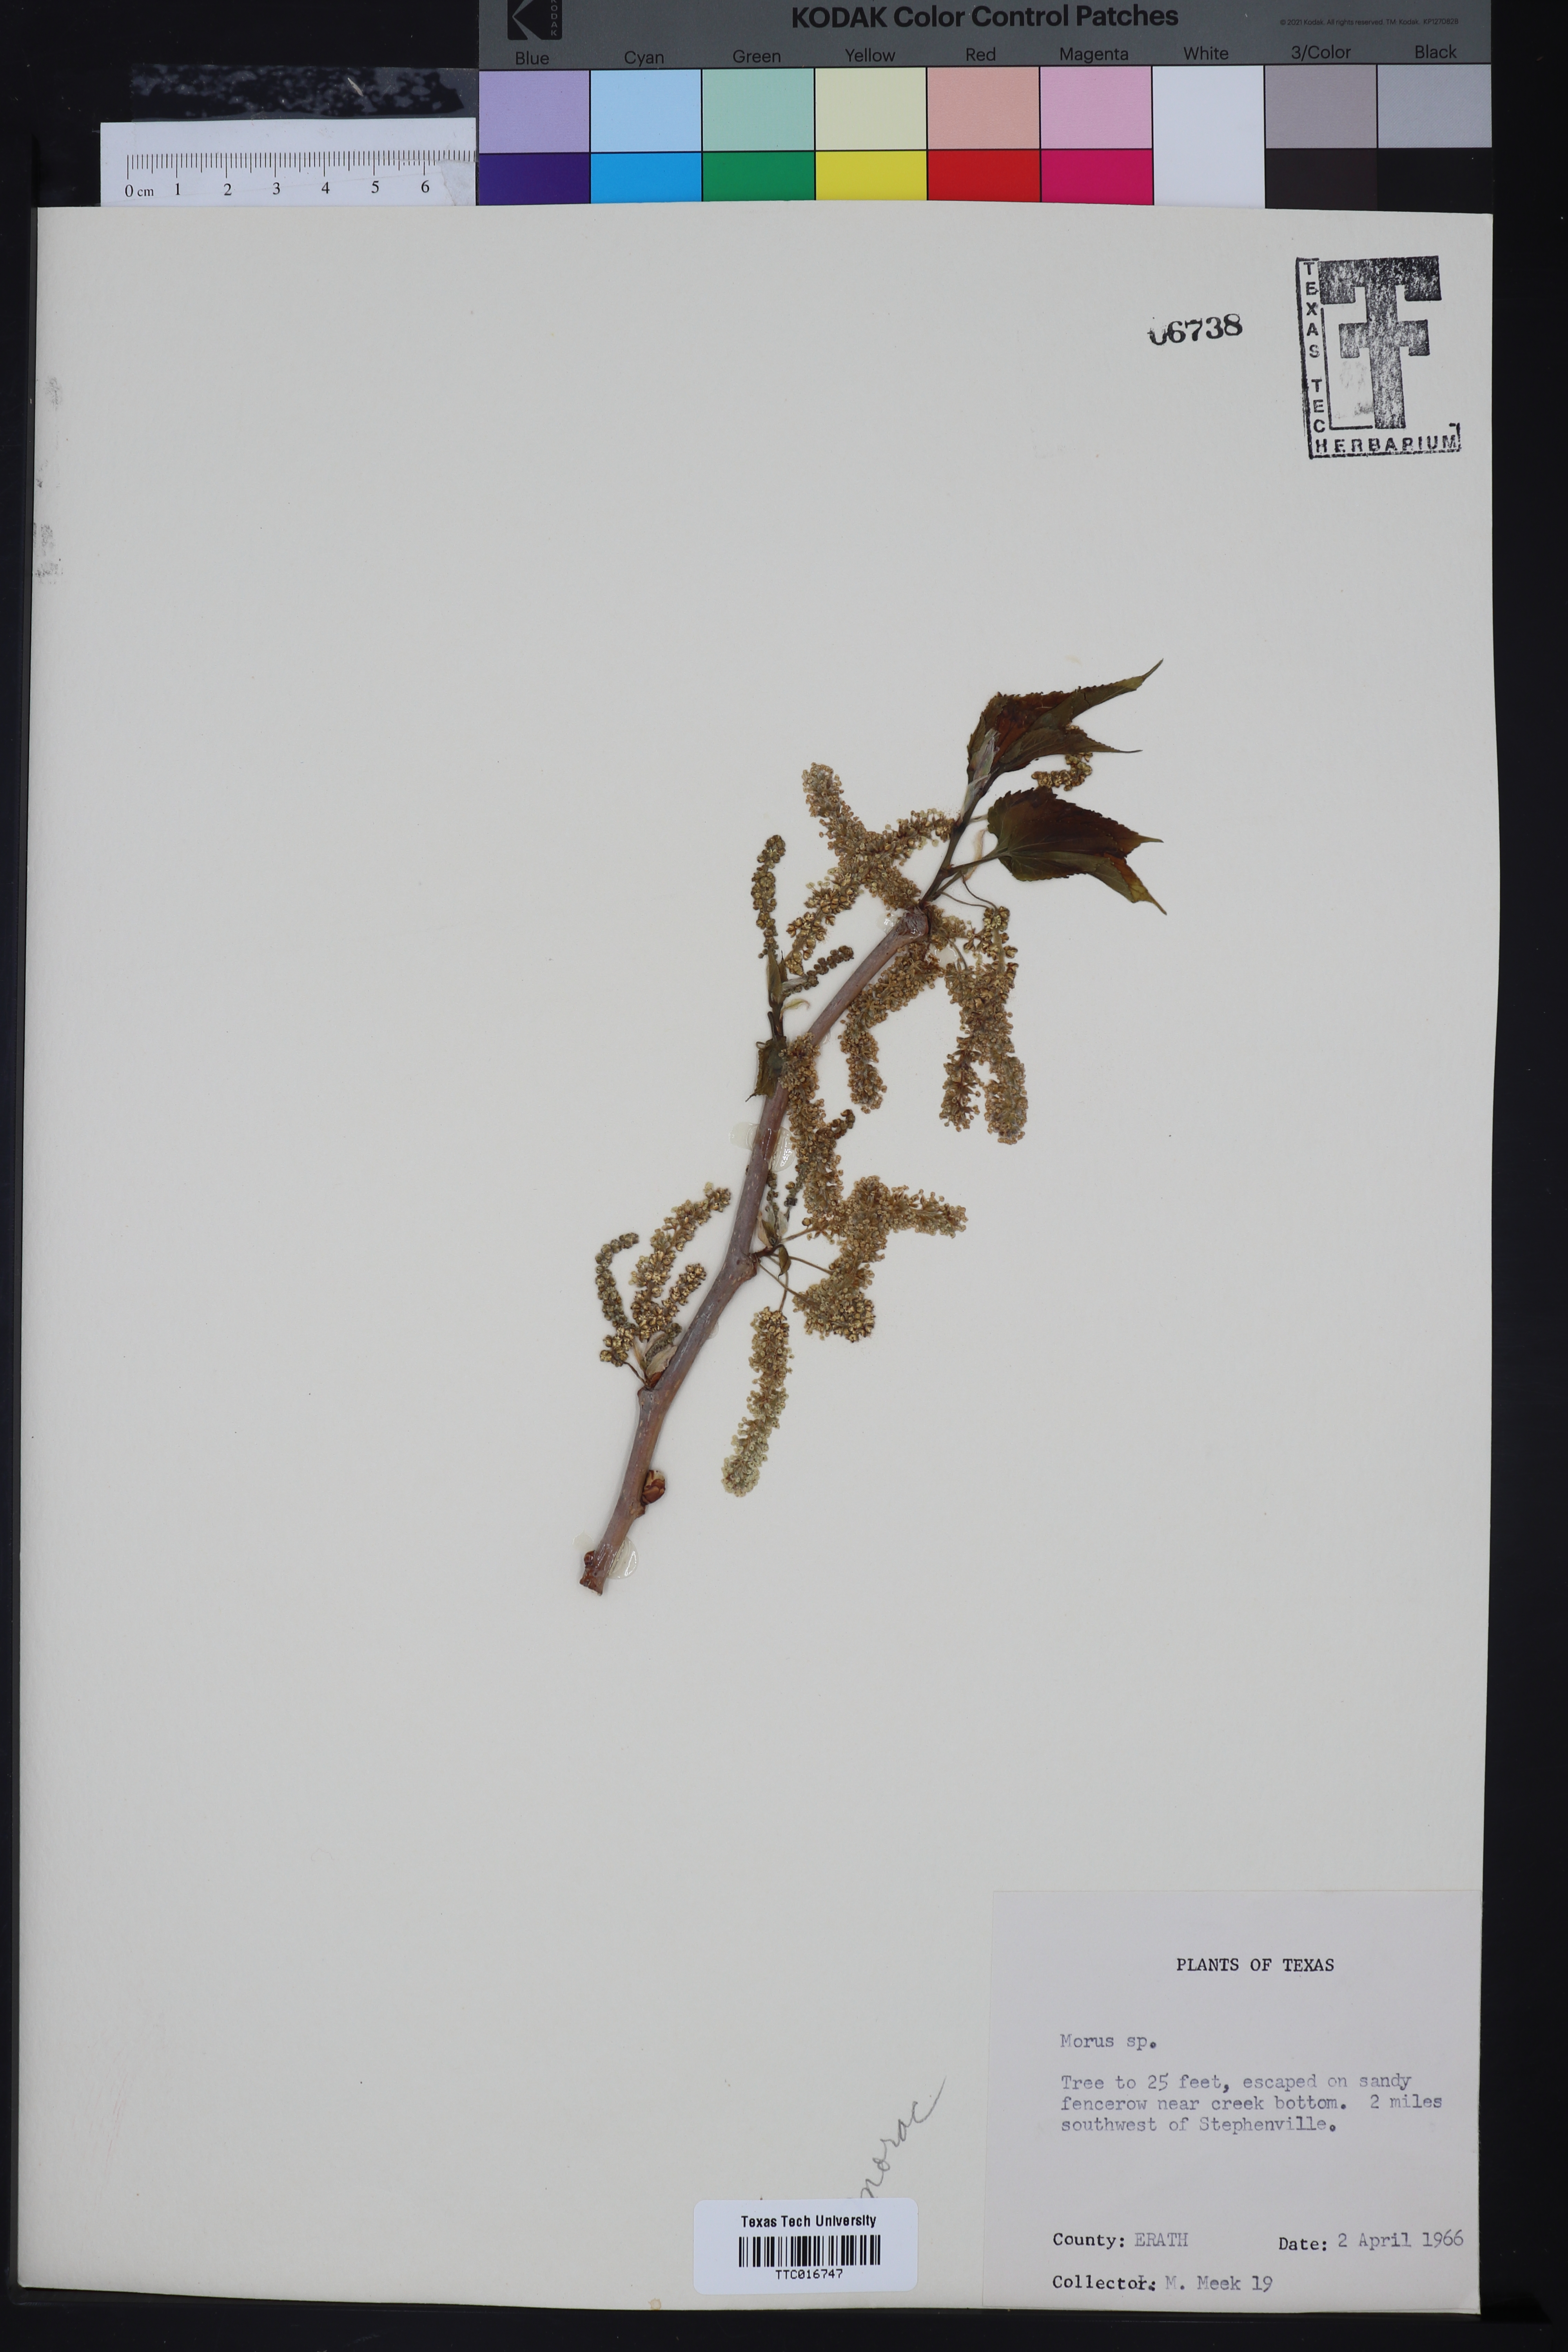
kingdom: Plantae
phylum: Tracheophyta
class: Magnoliopsida
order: Rosales
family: Moraceae
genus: Morus
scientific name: Morus
